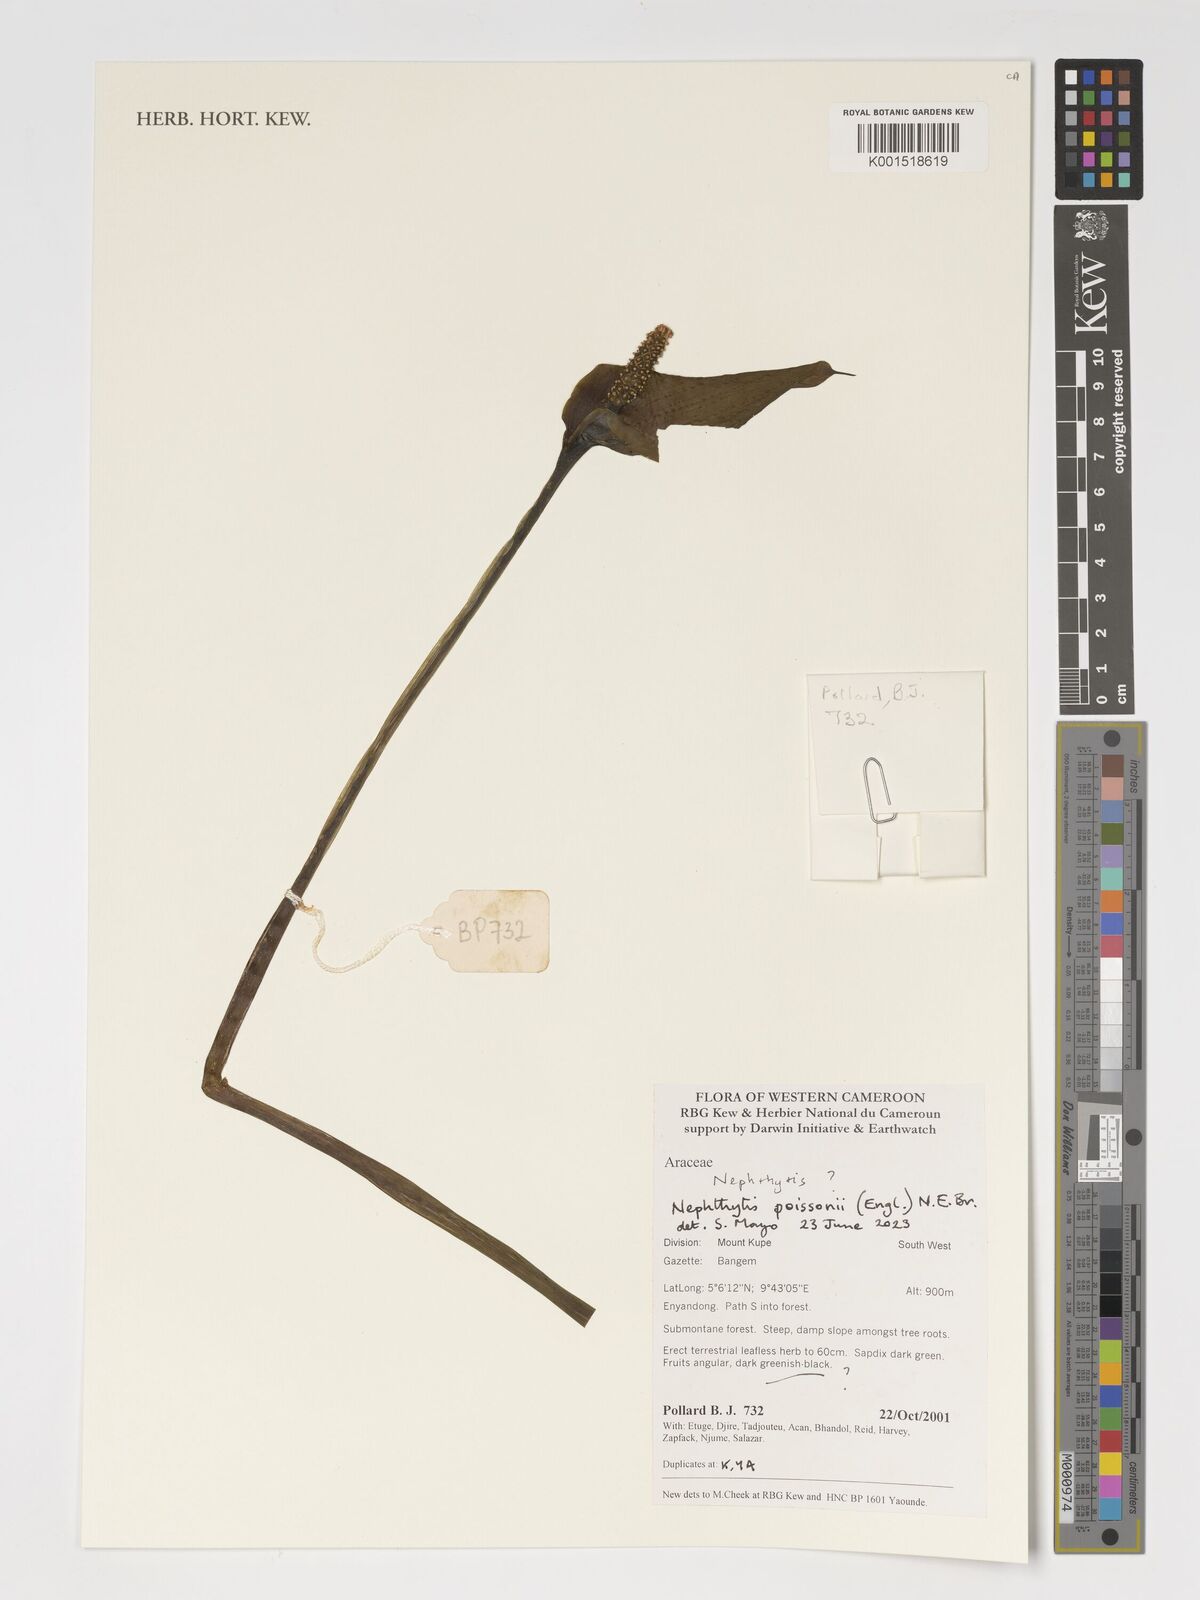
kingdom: Plantae
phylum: Tracheophyta
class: Liliopsida
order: Alismatales
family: Araceae
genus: Nephthytis
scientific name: Nephthytis poissonii
